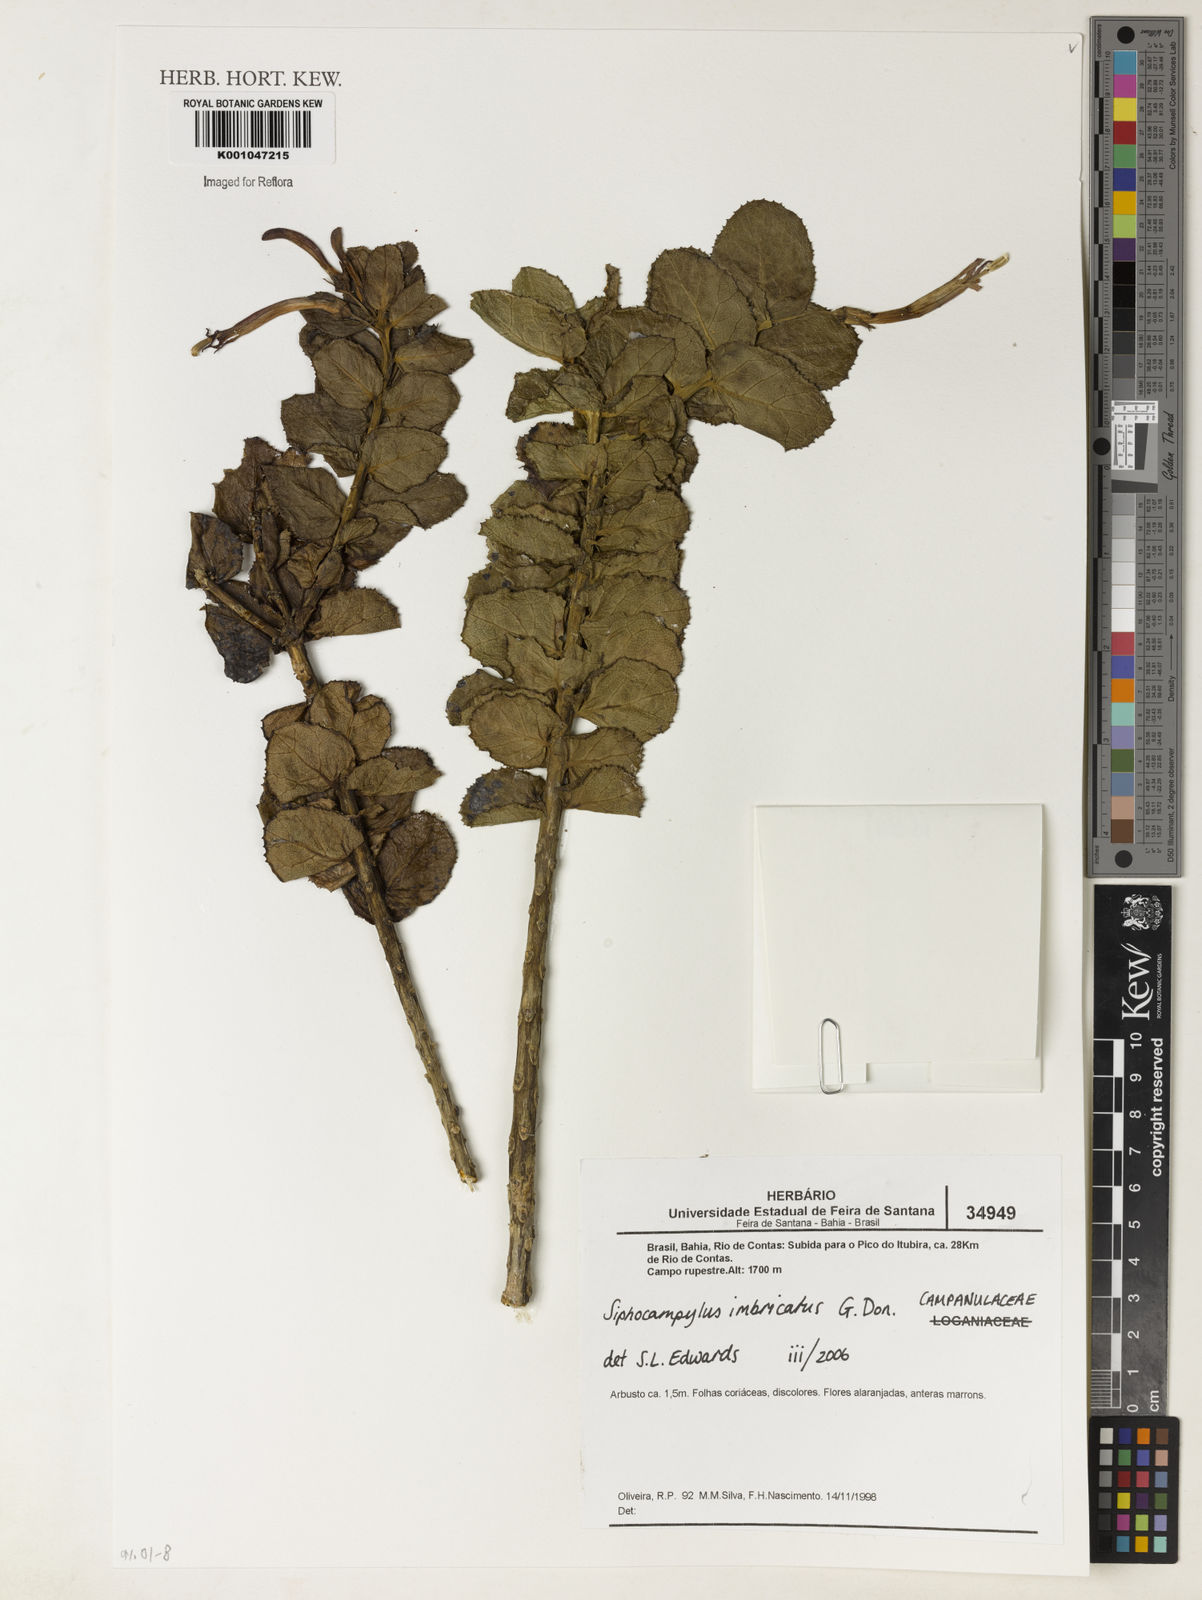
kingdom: Plantae
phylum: Tracheophyta
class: Magnoliopsida
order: Asterales
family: Campanulaceae
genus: Siphocampylus
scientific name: Siphocampylus imbricatus
